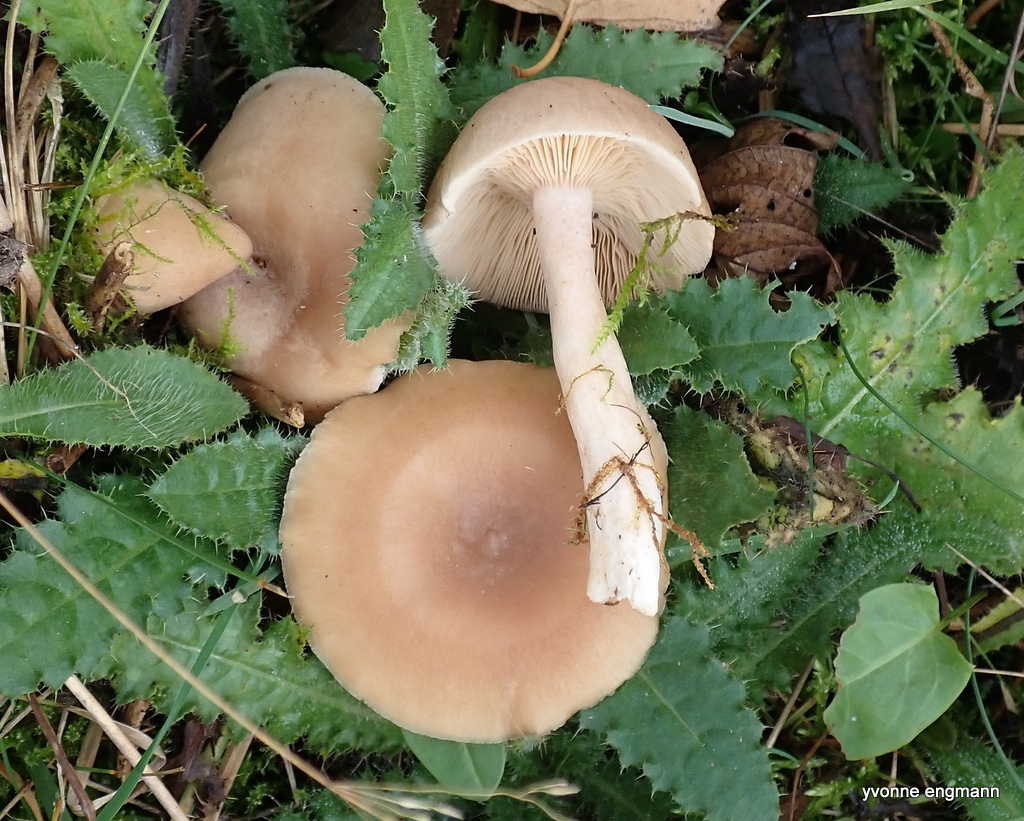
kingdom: Fungi
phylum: Basidiomycota
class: Agaricomycetes
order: Agaricales
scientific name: Agaricales
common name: champignonordenen
